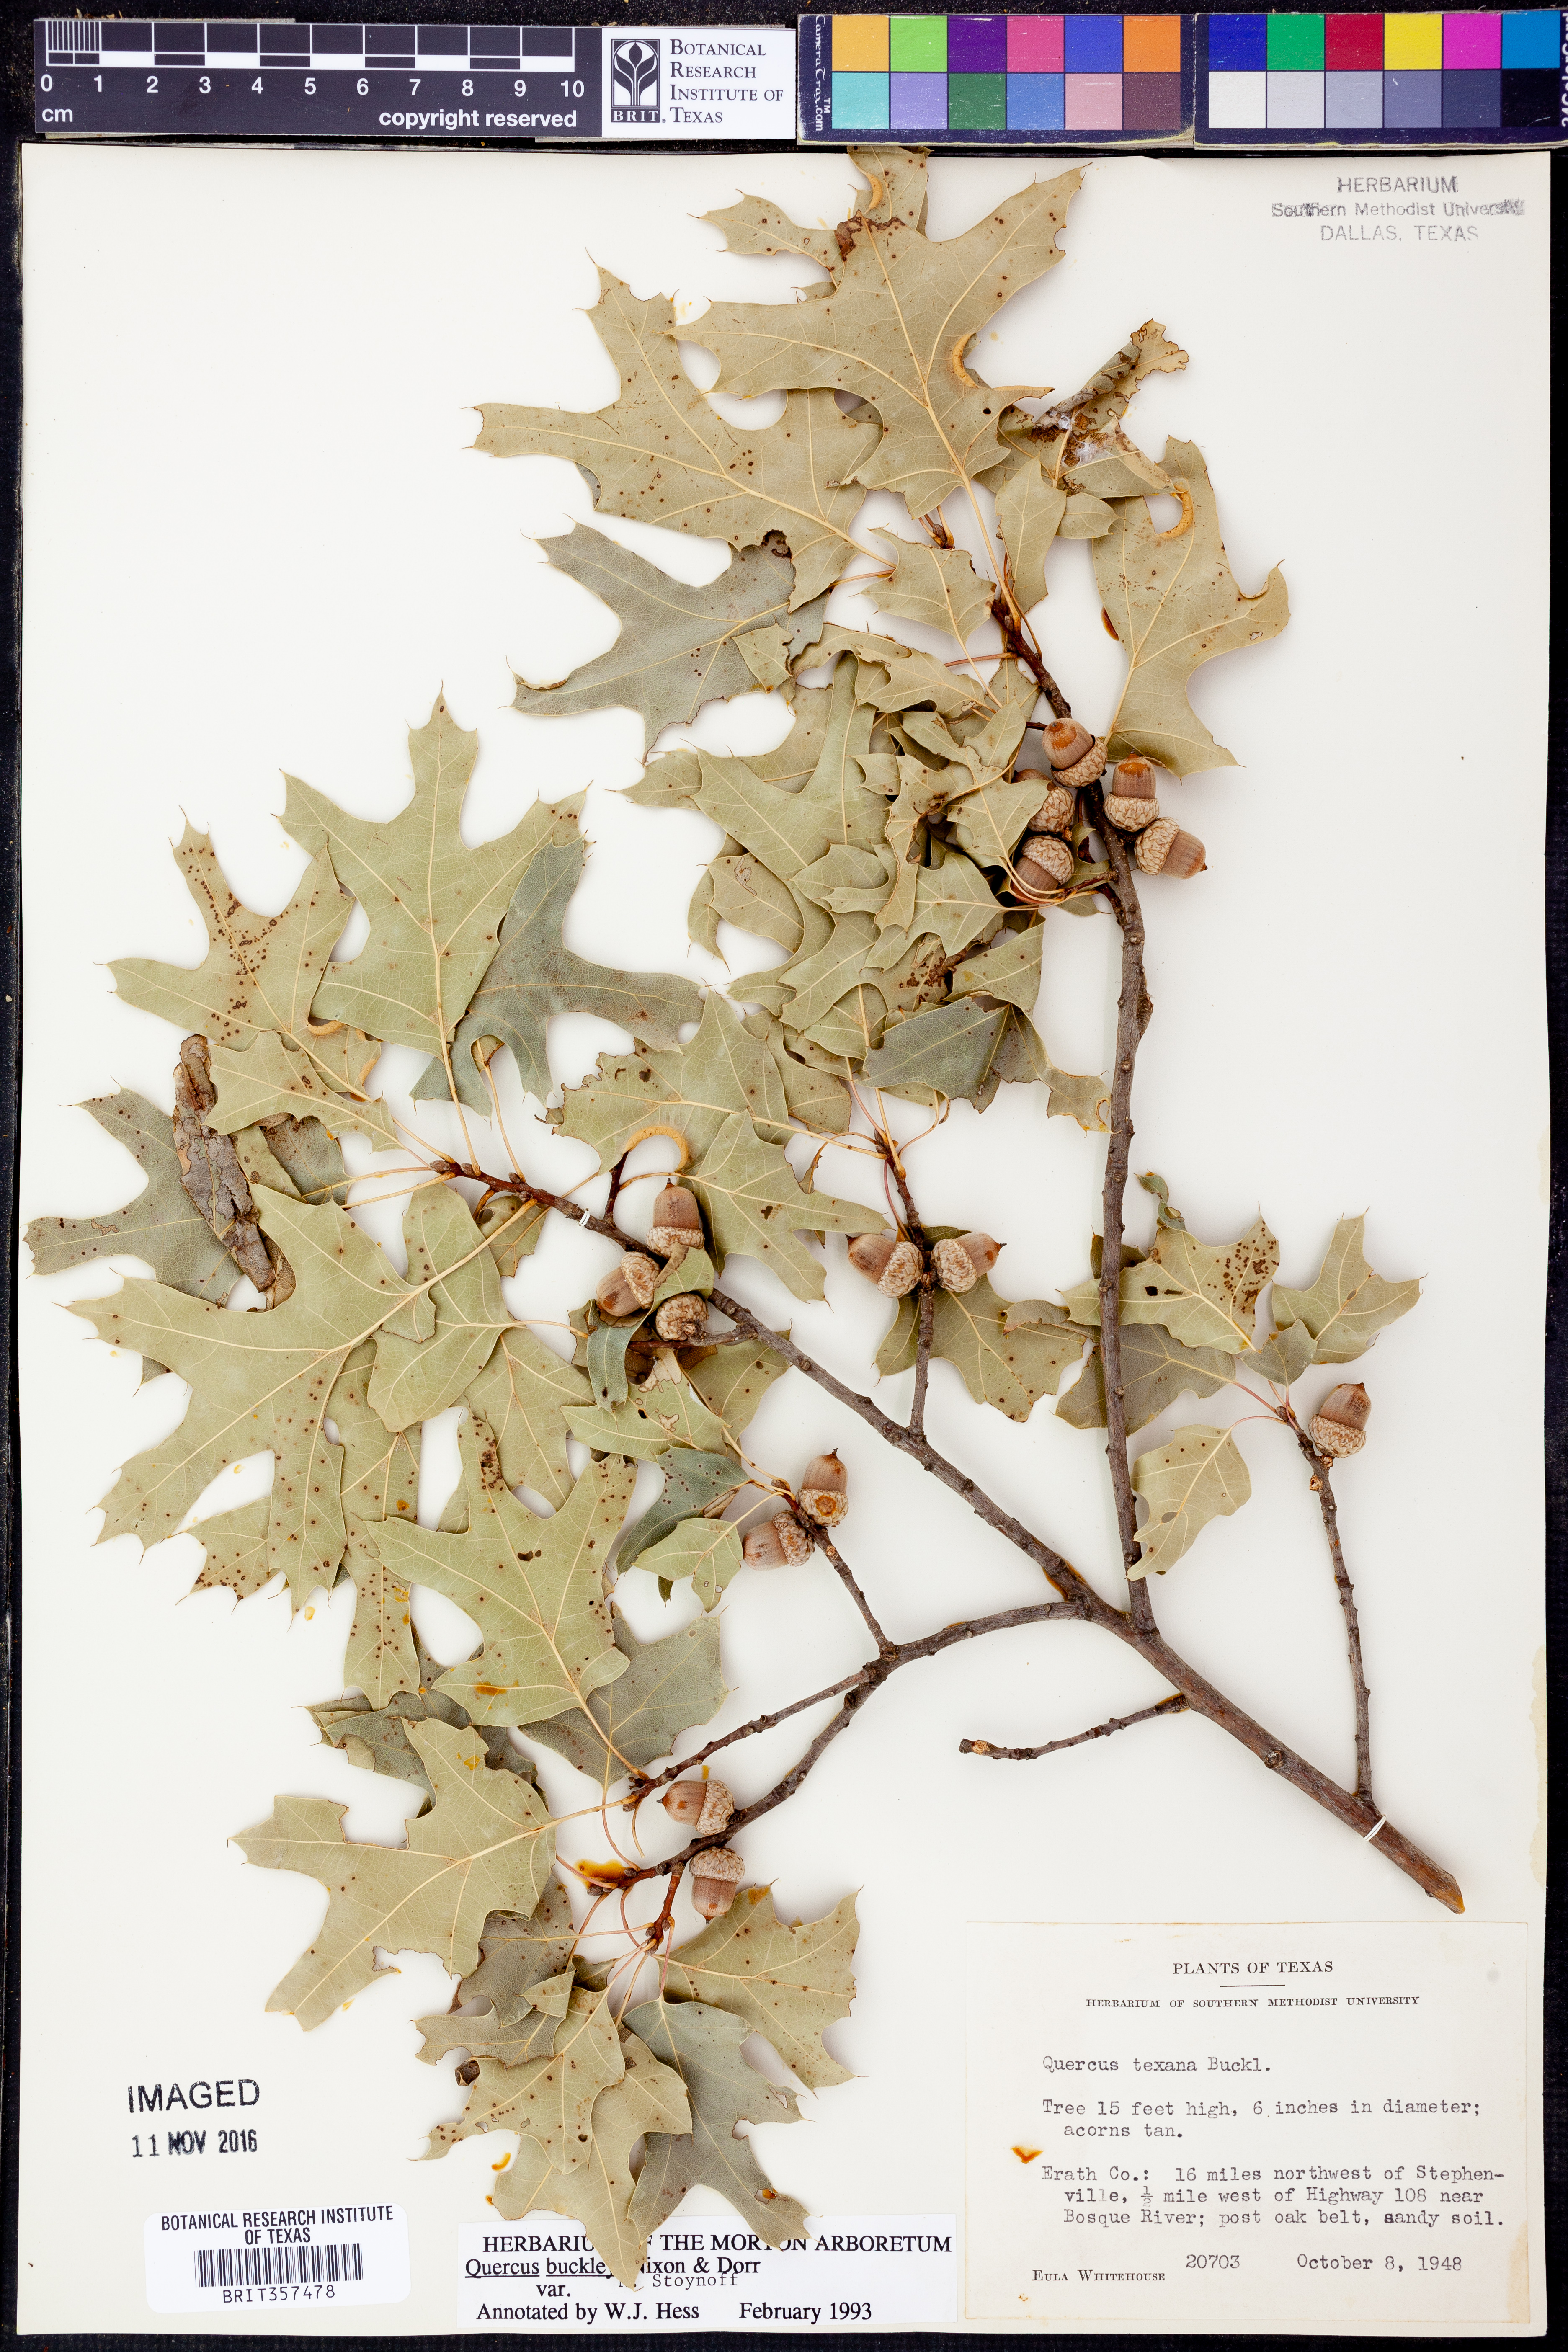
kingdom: Plantae
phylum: Tracheophyta
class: Magnoliopsida
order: Fagales
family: Fagaceae
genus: Quercus
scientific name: Quercus buckleyi
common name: Buckley oak
